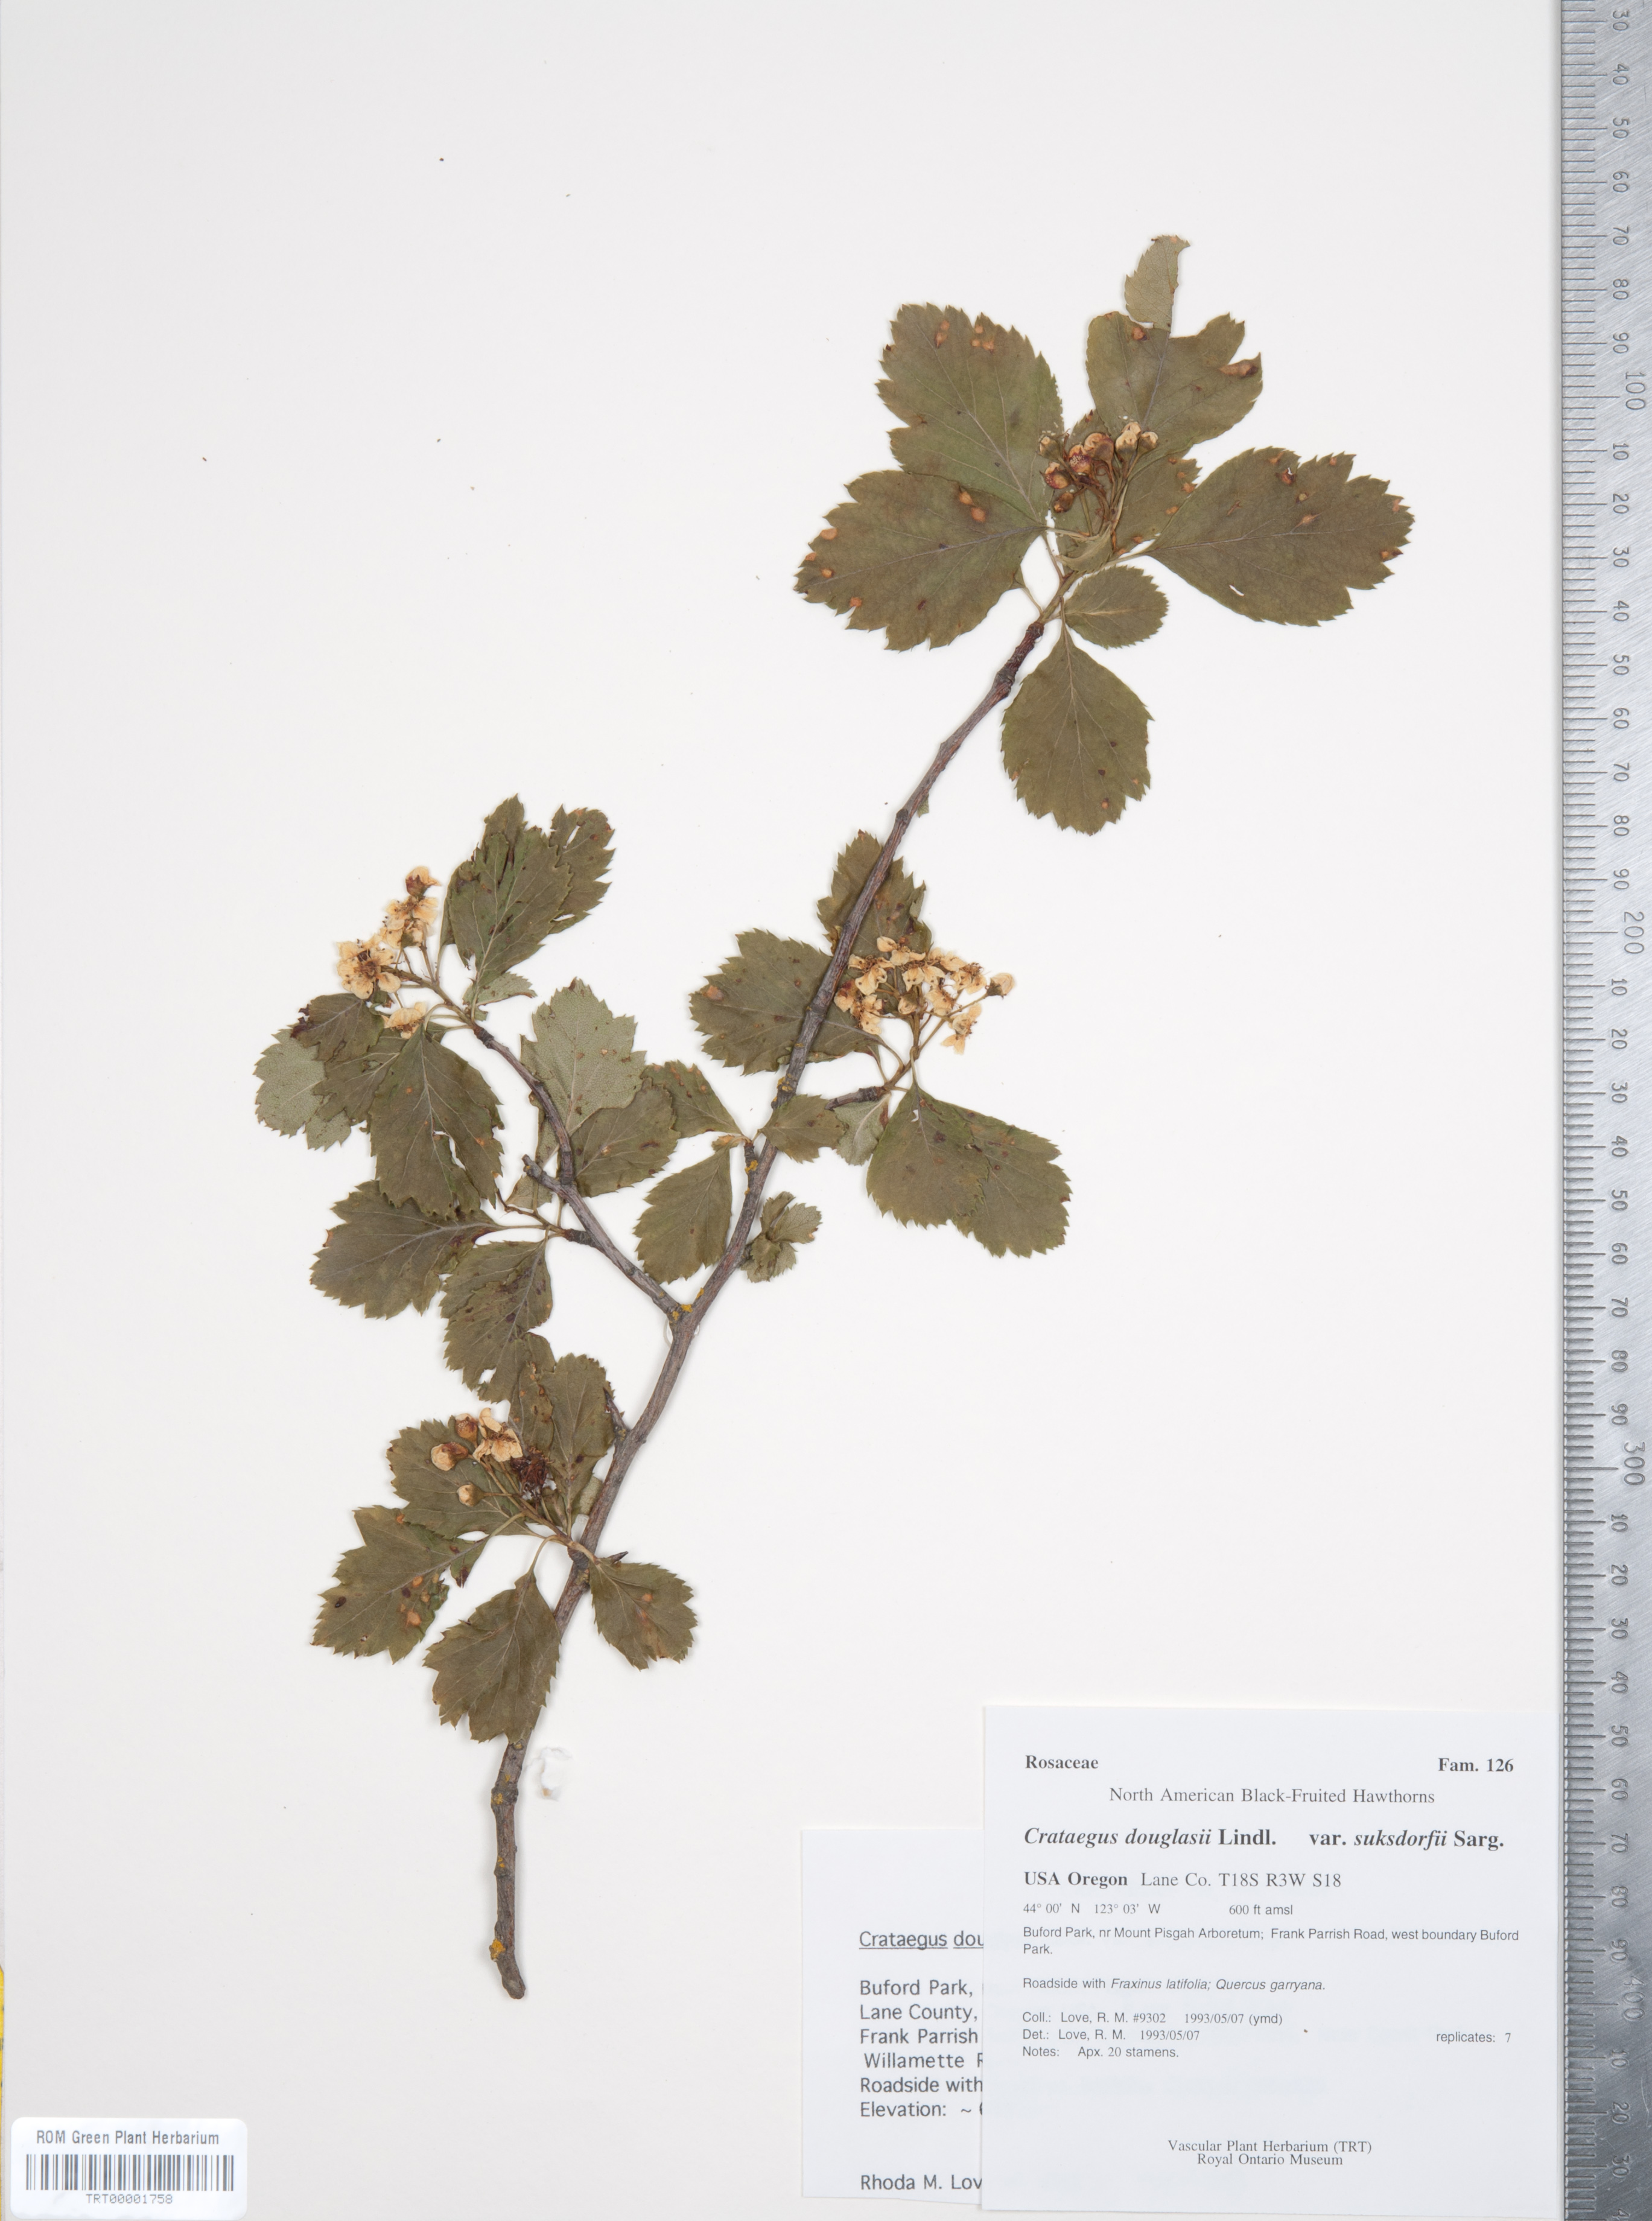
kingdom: Plantae
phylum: Tracheophyta
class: Magnoliopsida
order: Rosales
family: Rosaceae
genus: Crataegus
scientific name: Crataegus gaylussacia
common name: Huckleberry hawthorn
